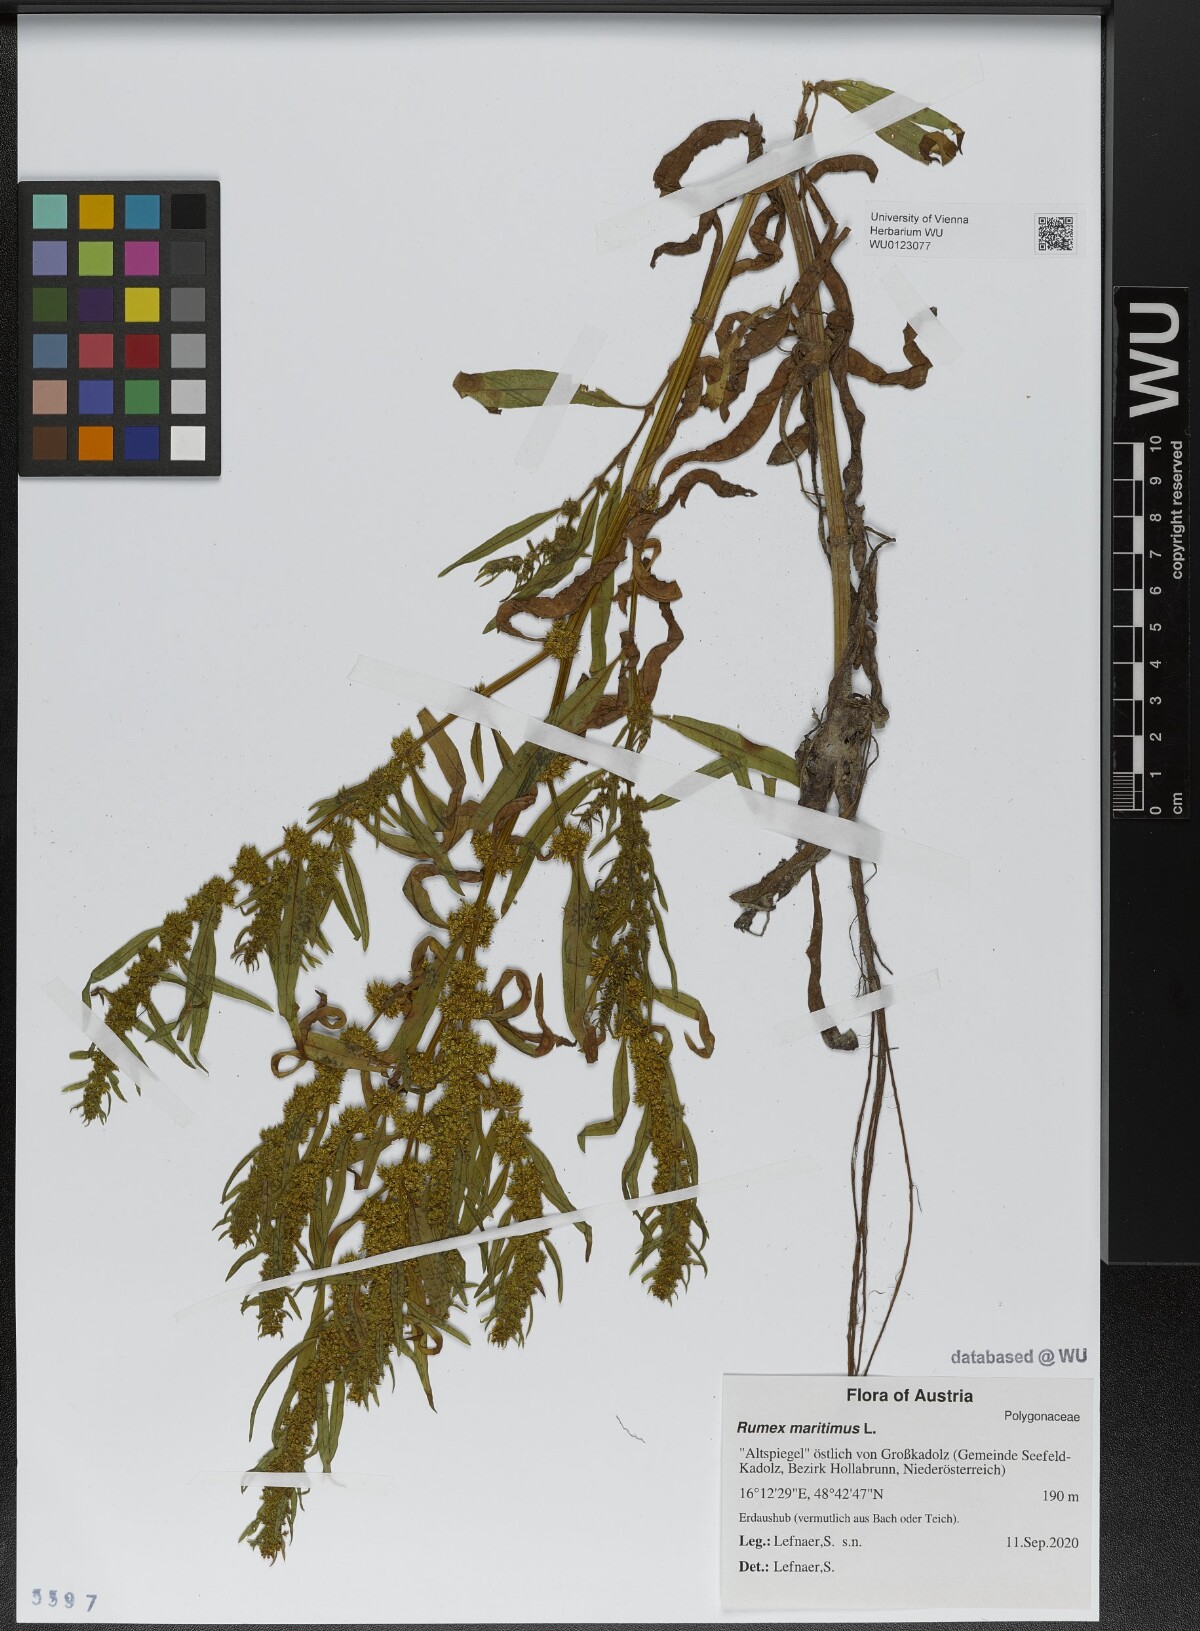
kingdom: Plantae
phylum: Tracheophyta
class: Magnoliopsida
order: Caryophyllales
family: Polygonaceae
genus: Rumex
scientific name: Rumex maritimus
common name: Golden dock
